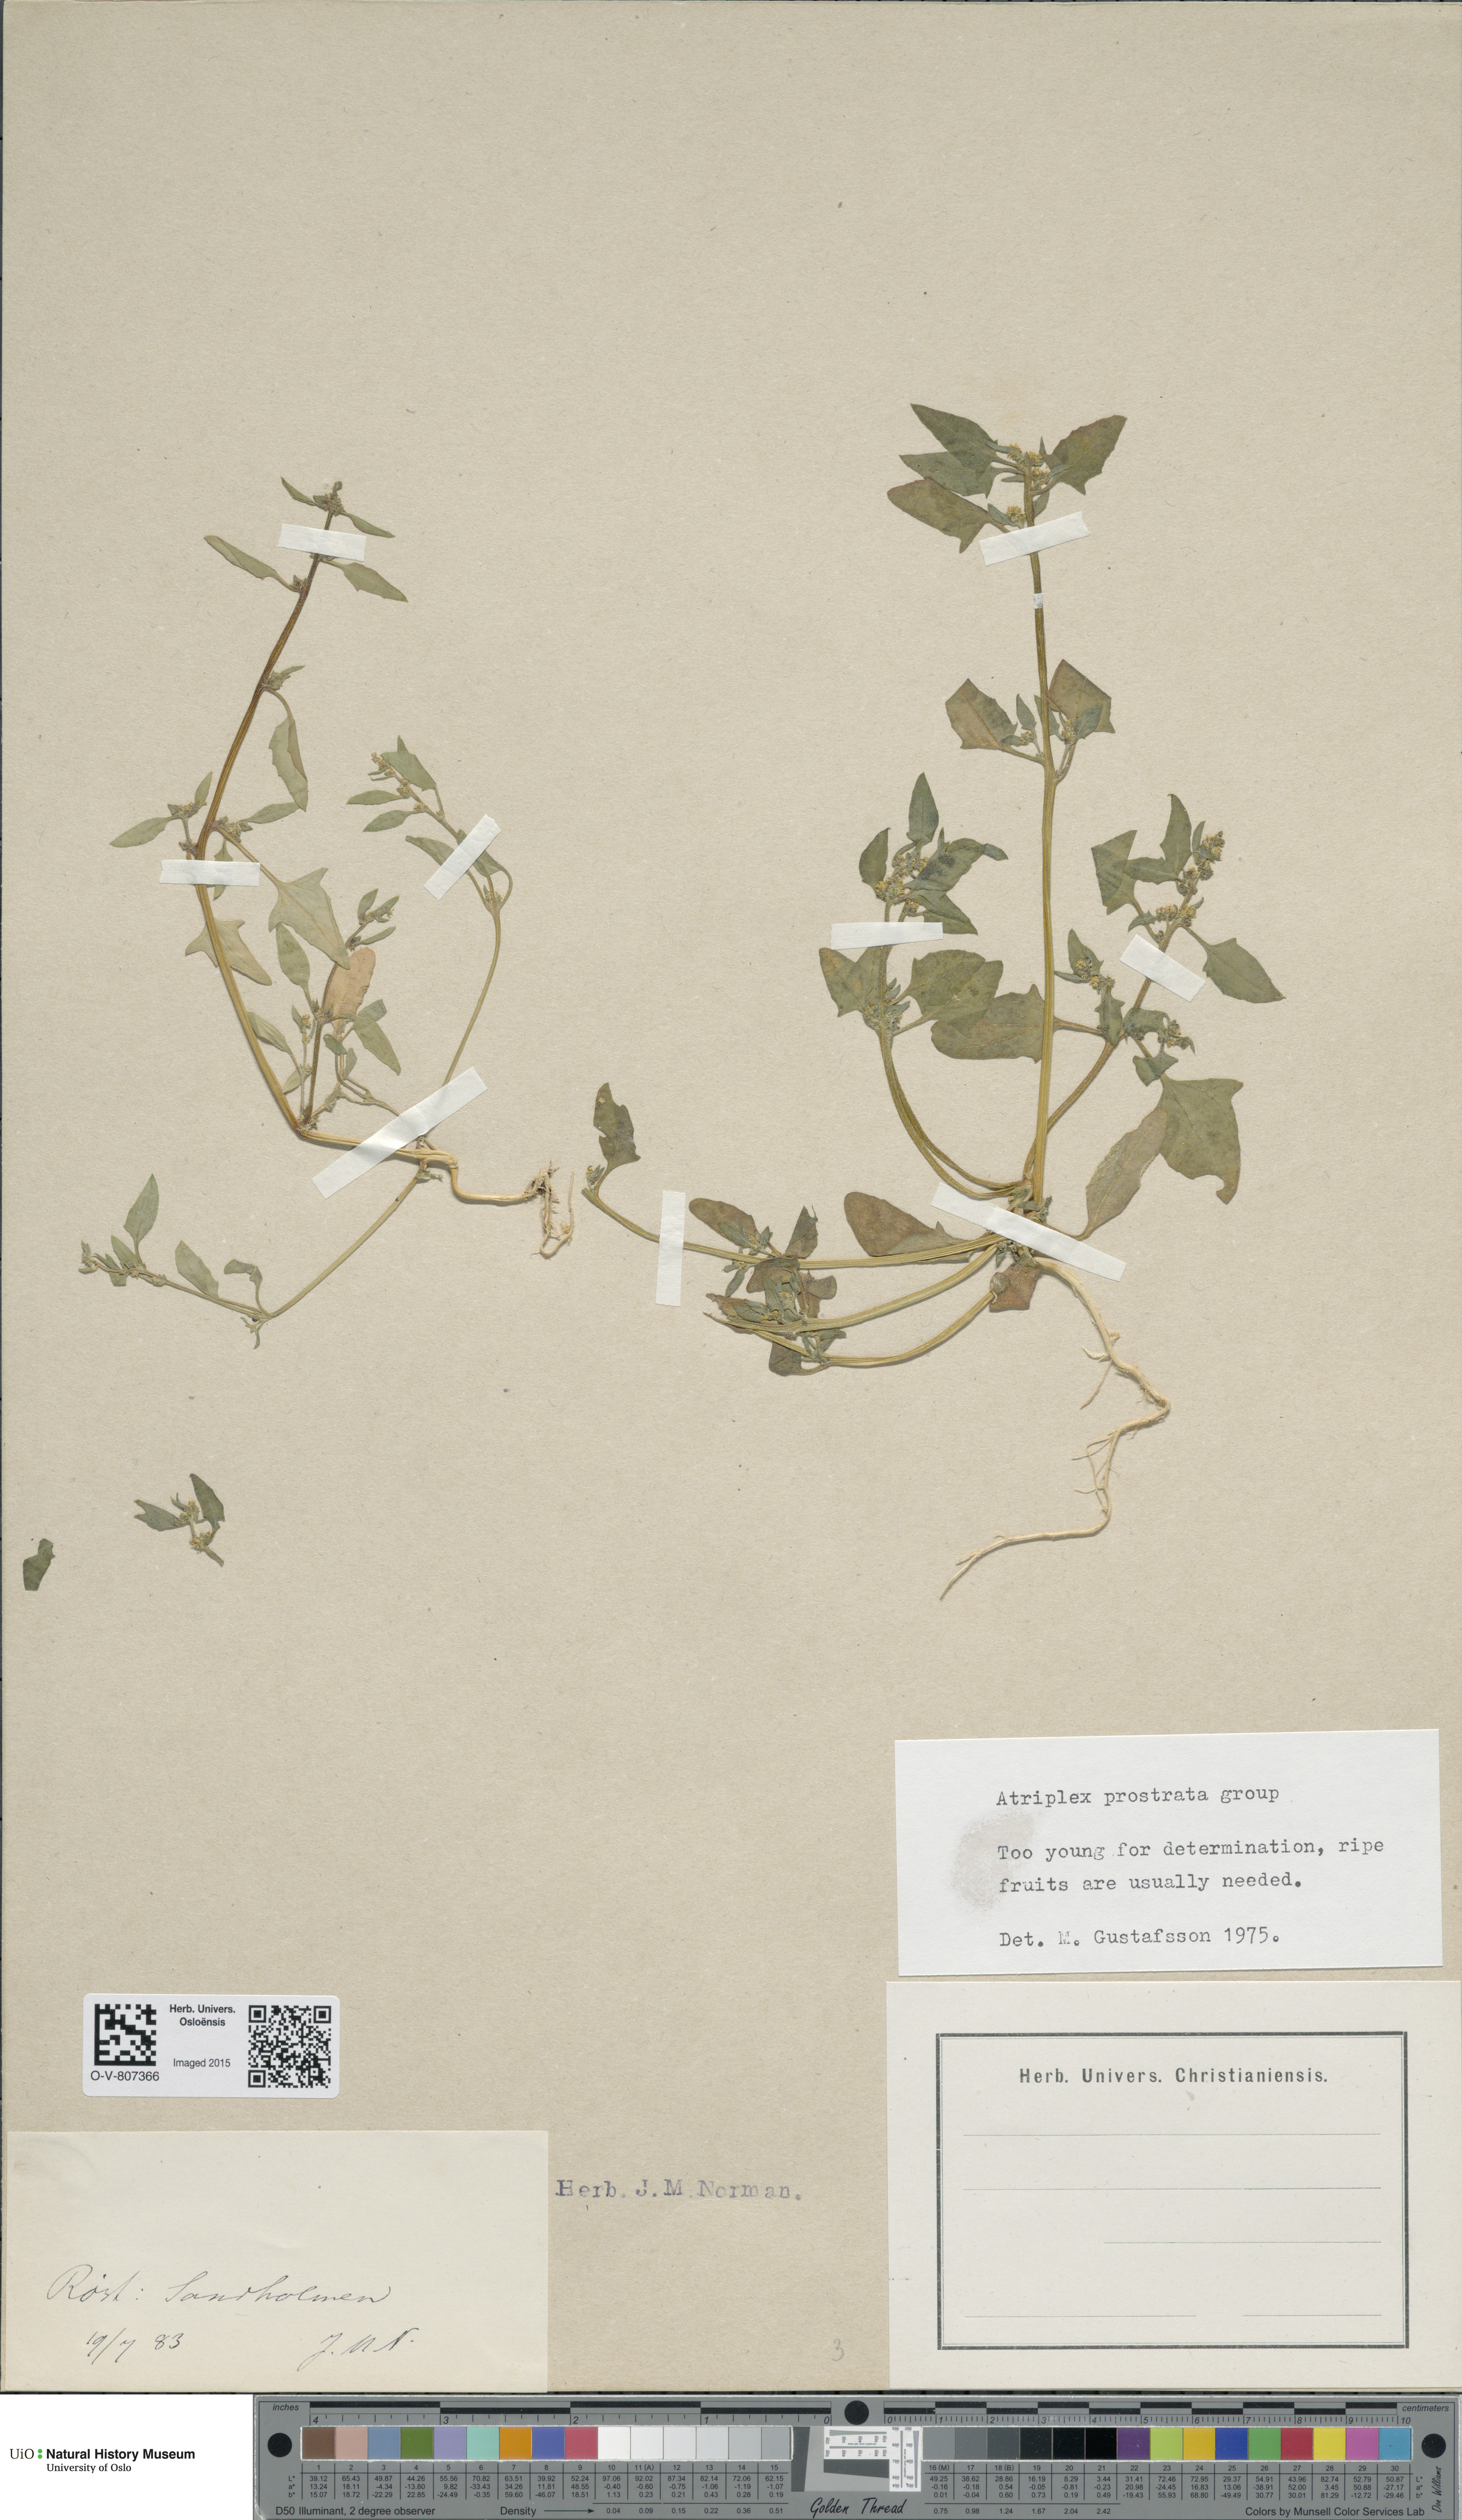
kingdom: Plantae
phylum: Tracheophyta
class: Magnoliopsida
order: Caryophyllales
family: Amaranthaceae
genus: Atriplex
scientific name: Atriplex prostrata
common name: Spear-leaved orache
